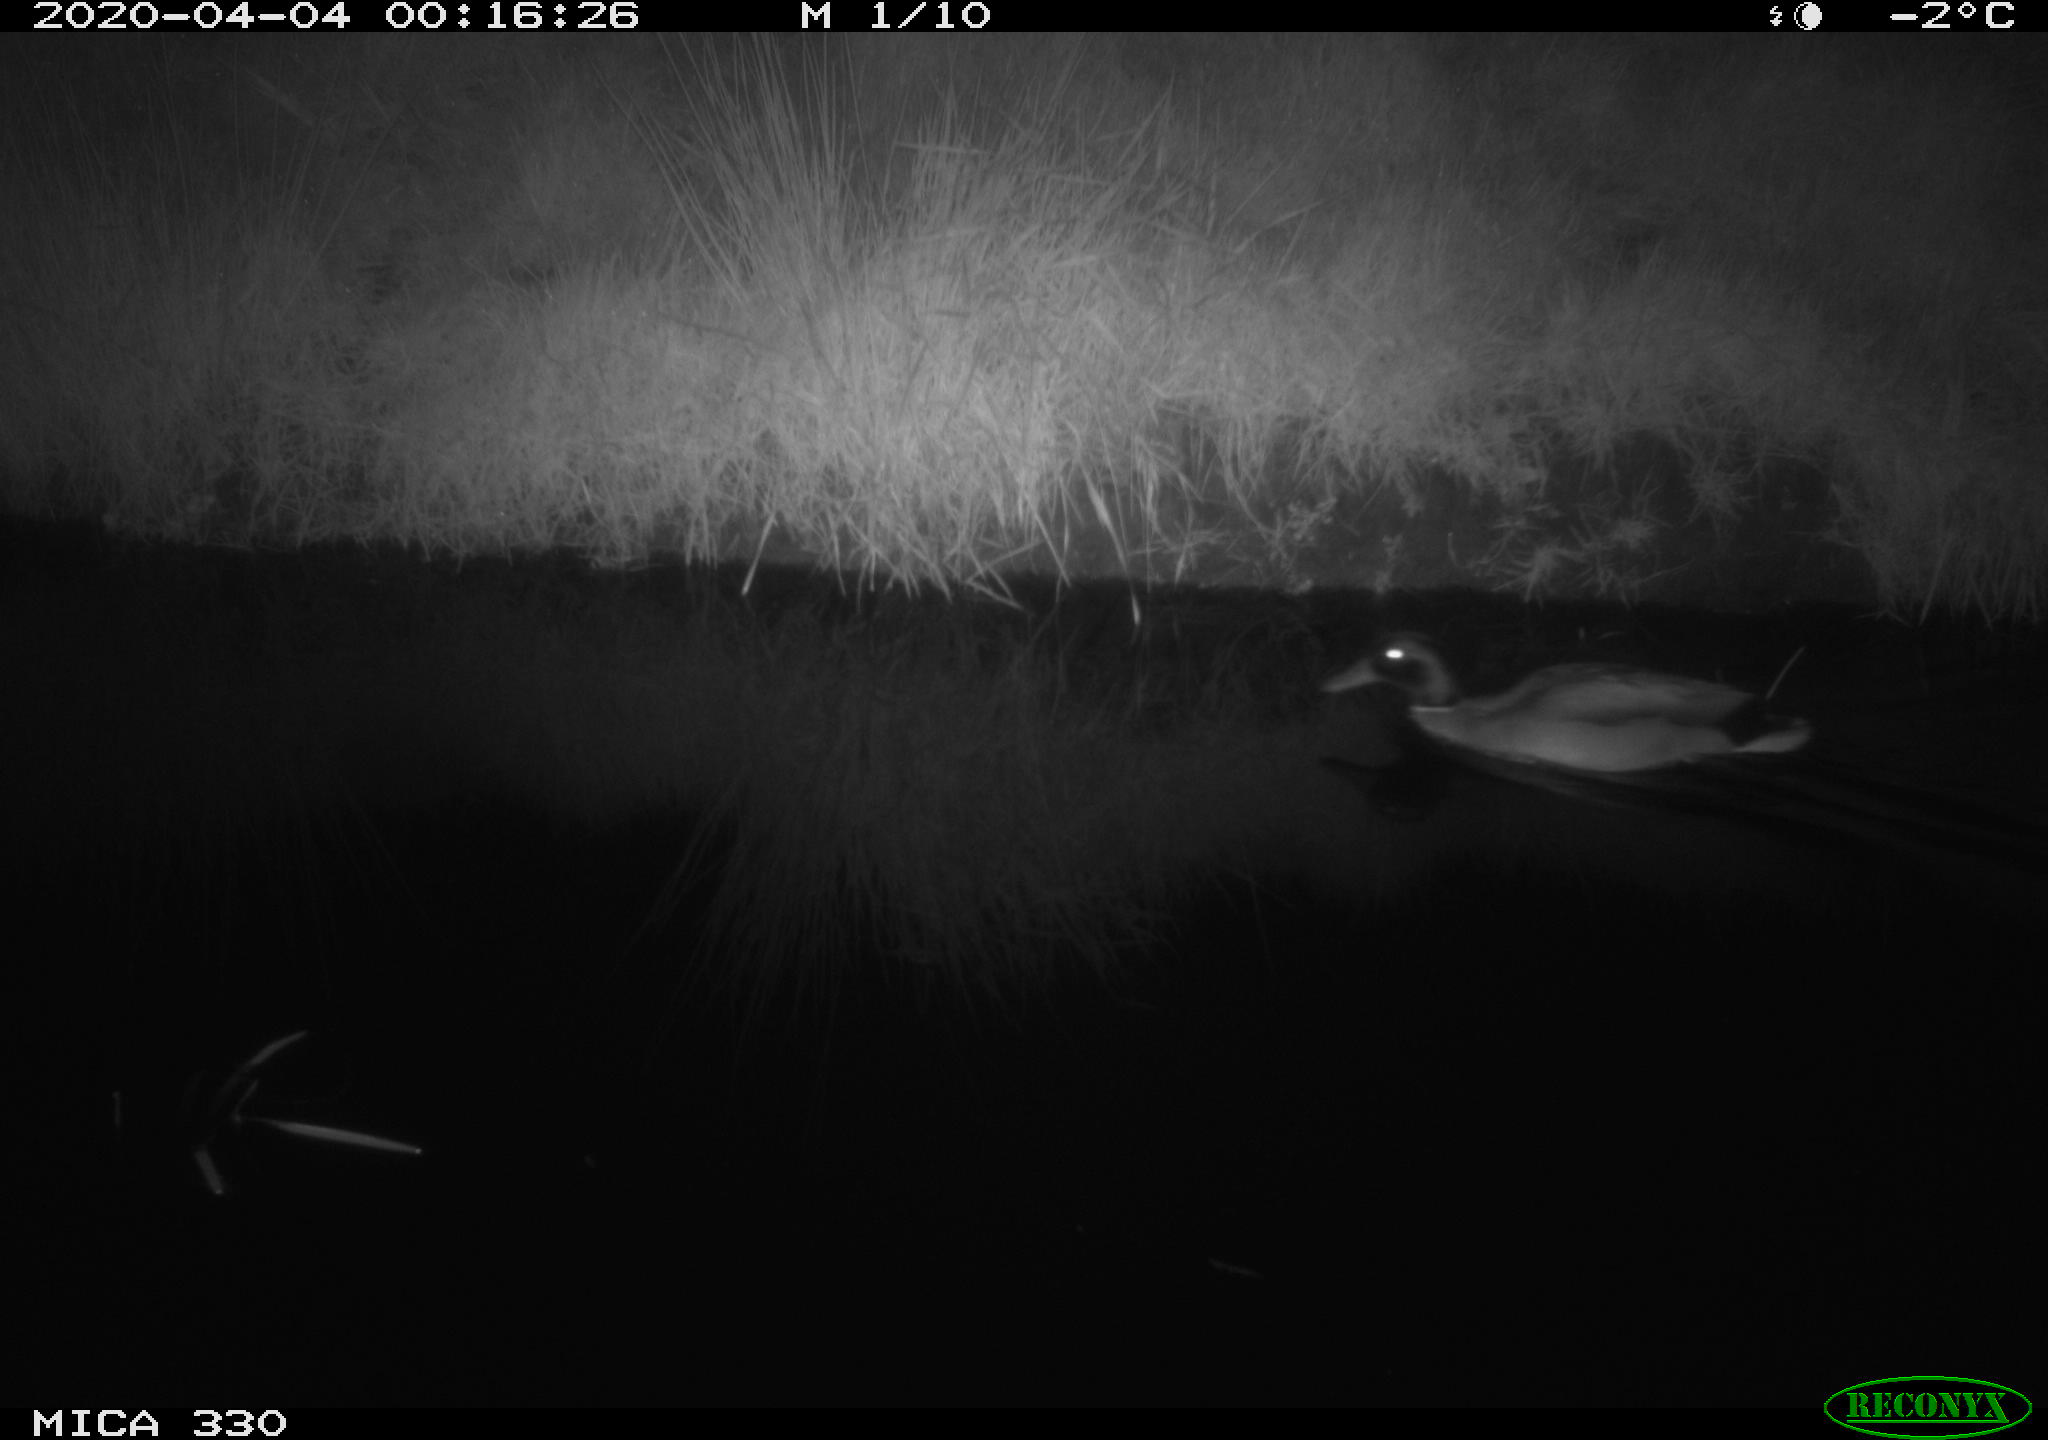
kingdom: Animalia
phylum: Chordata
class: Aves
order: Anseriformes
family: Anatidae
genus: Anas
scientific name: Anas platyrhynchos
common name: Mallard
